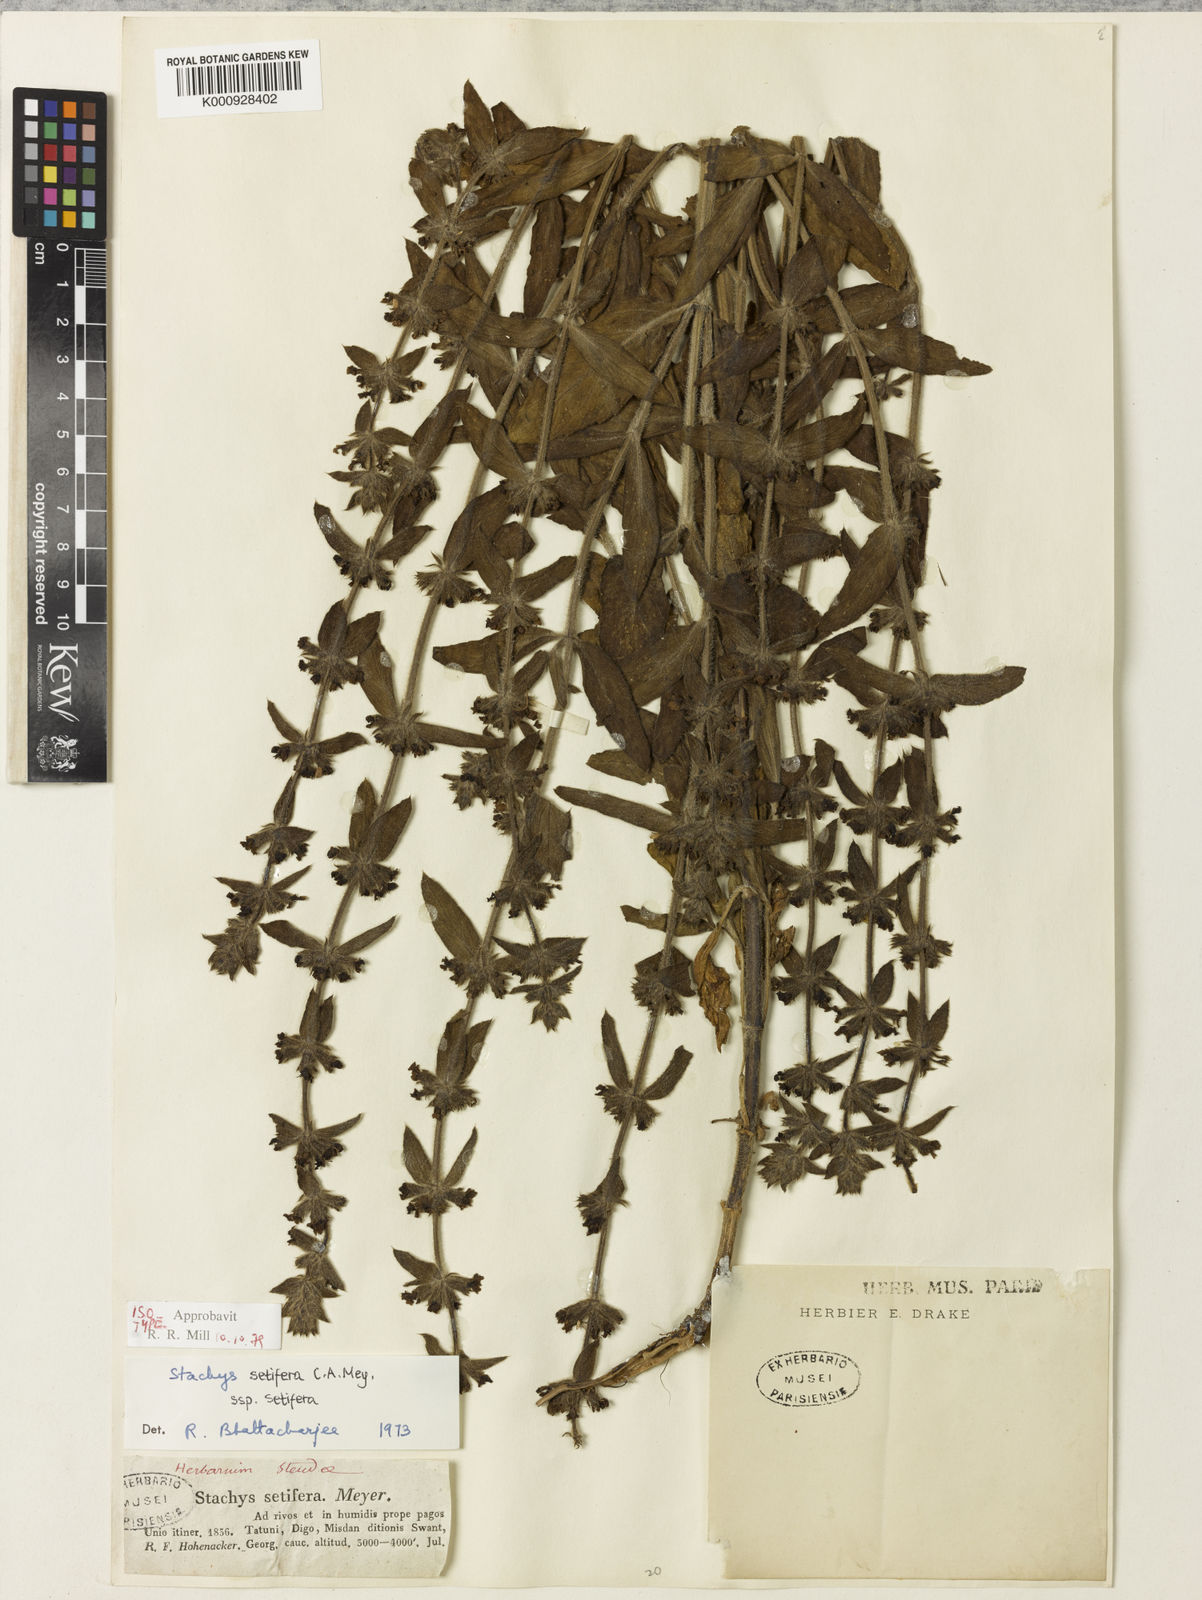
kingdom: Plantae
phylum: Tracheophyta
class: Magnoliopsida
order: Lamiales
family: Lamiaceae
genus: Stachys
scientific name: Stachys setifera
